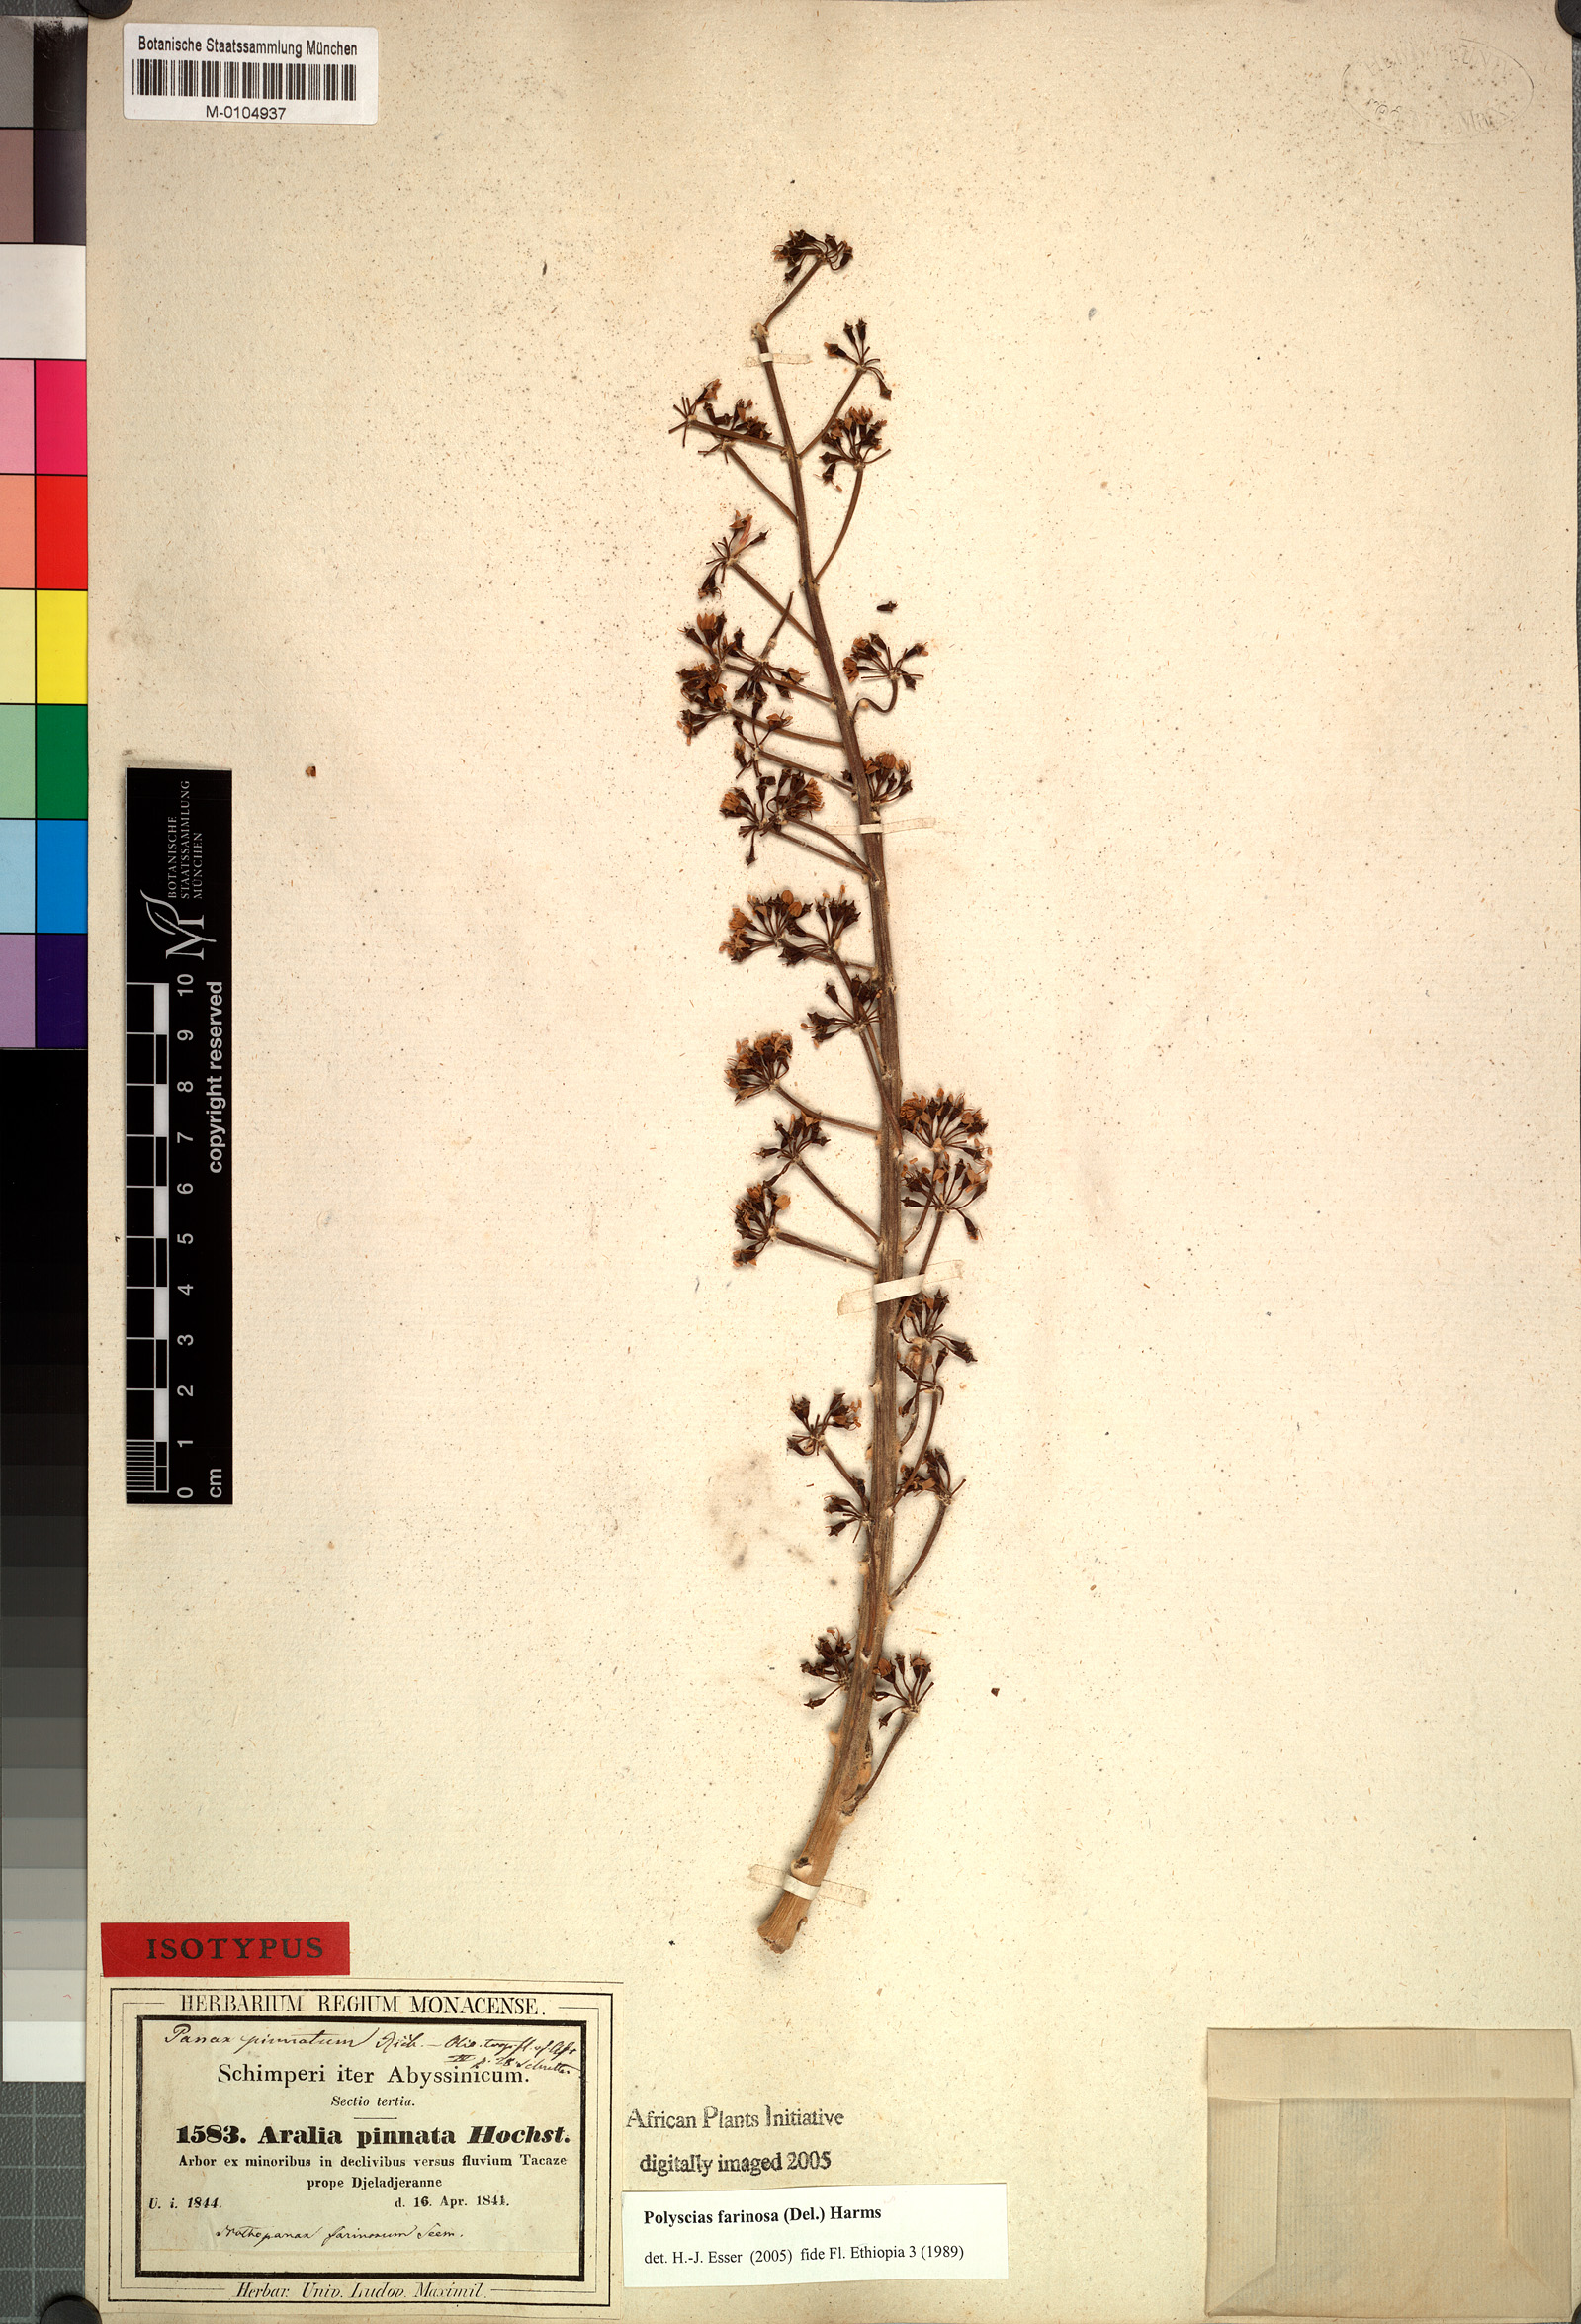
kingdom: Plantae
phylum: Tracheophyta
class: Magnoliopsida
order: Apiales
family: Araliaceae
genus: Polyscias
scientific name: Polyscias farinosa
